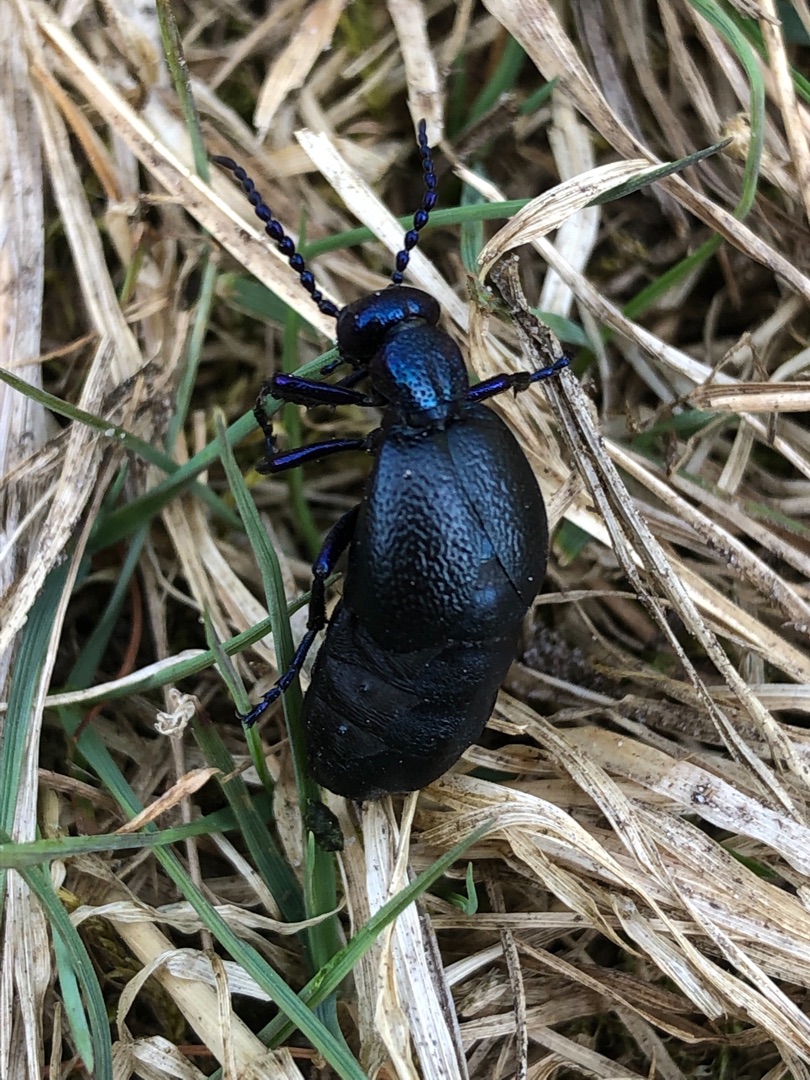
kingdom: Animalia
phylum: Arthropoda
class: Insecta
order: Coleoptera
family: Meloidae
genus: Meloe
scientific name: Meloe proscarabaeus
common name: Sort oliebille
